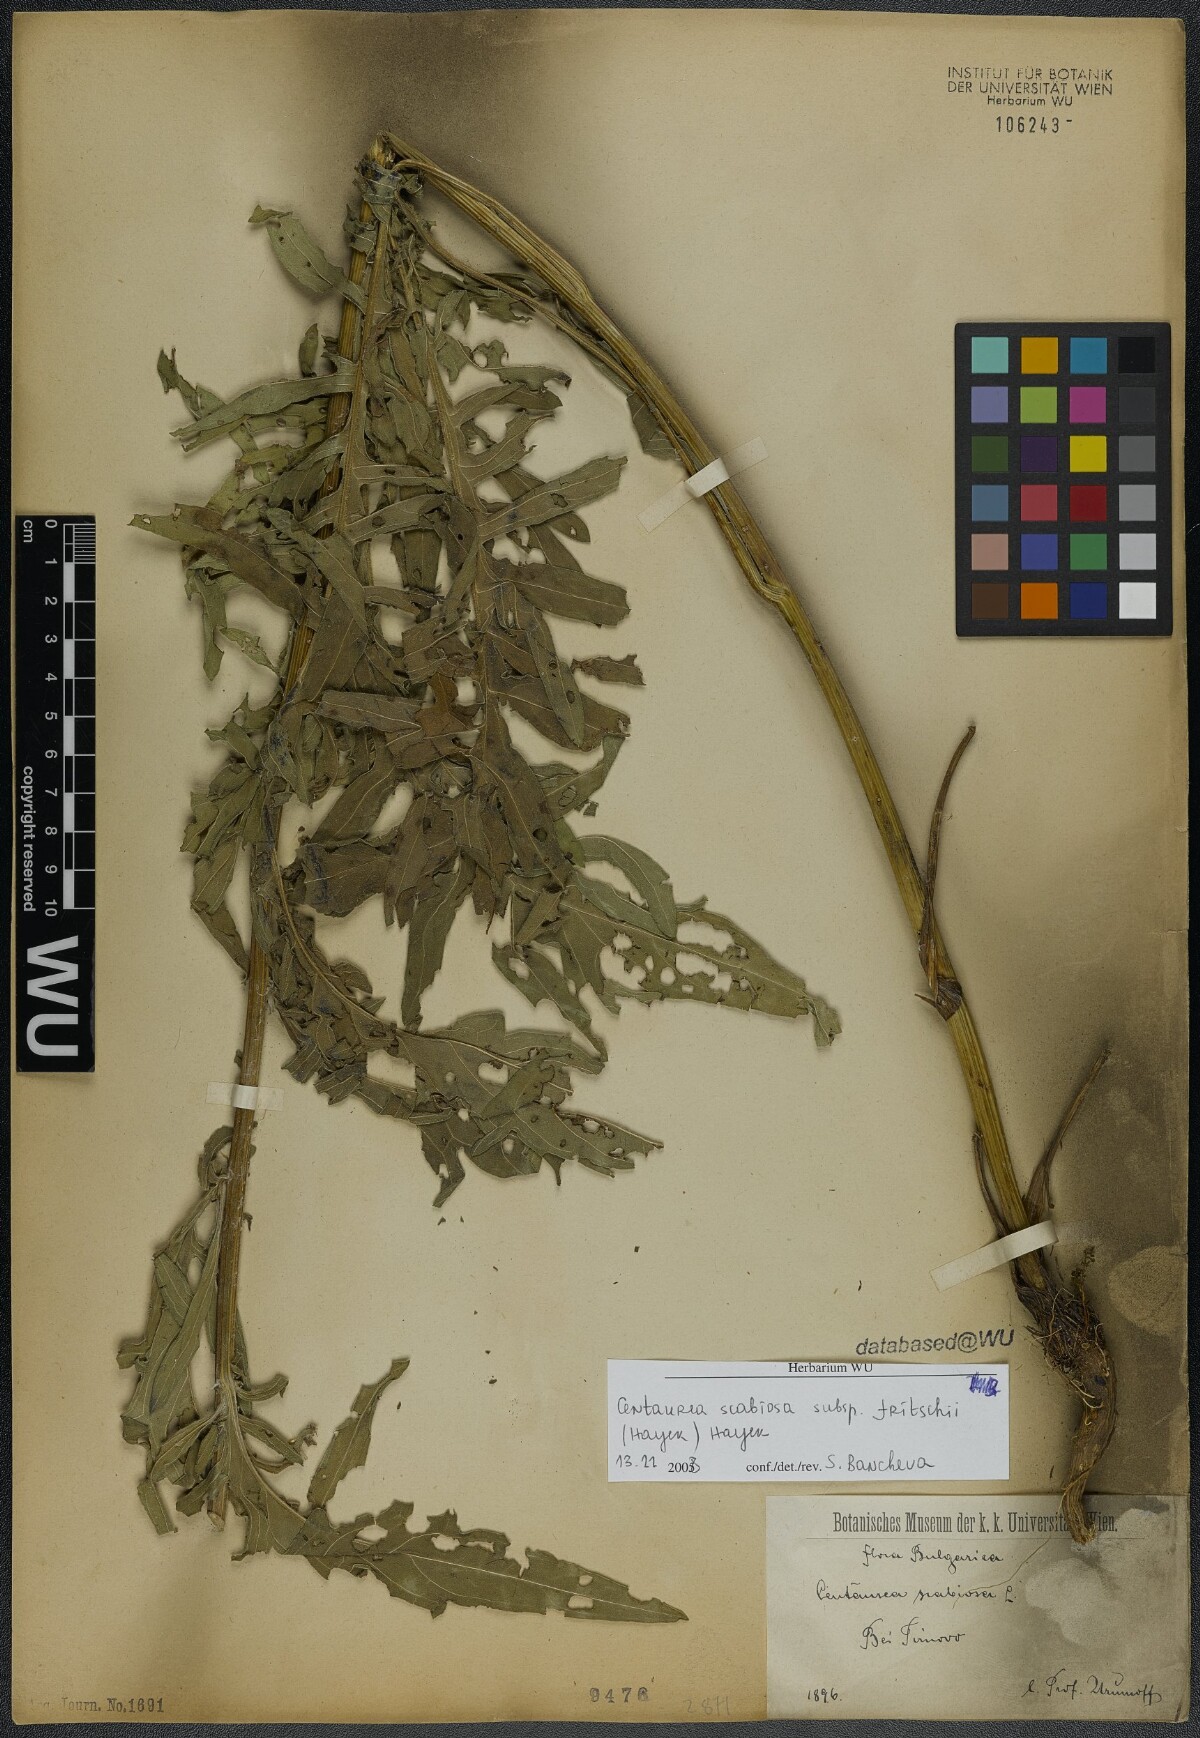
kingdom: Plantae
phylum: Tracheophyta
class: Magnoliopsida
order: Asterales
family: Asteraceae
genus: Centaurea
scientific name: Centaurea scabiosa
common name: Greater knapweed
